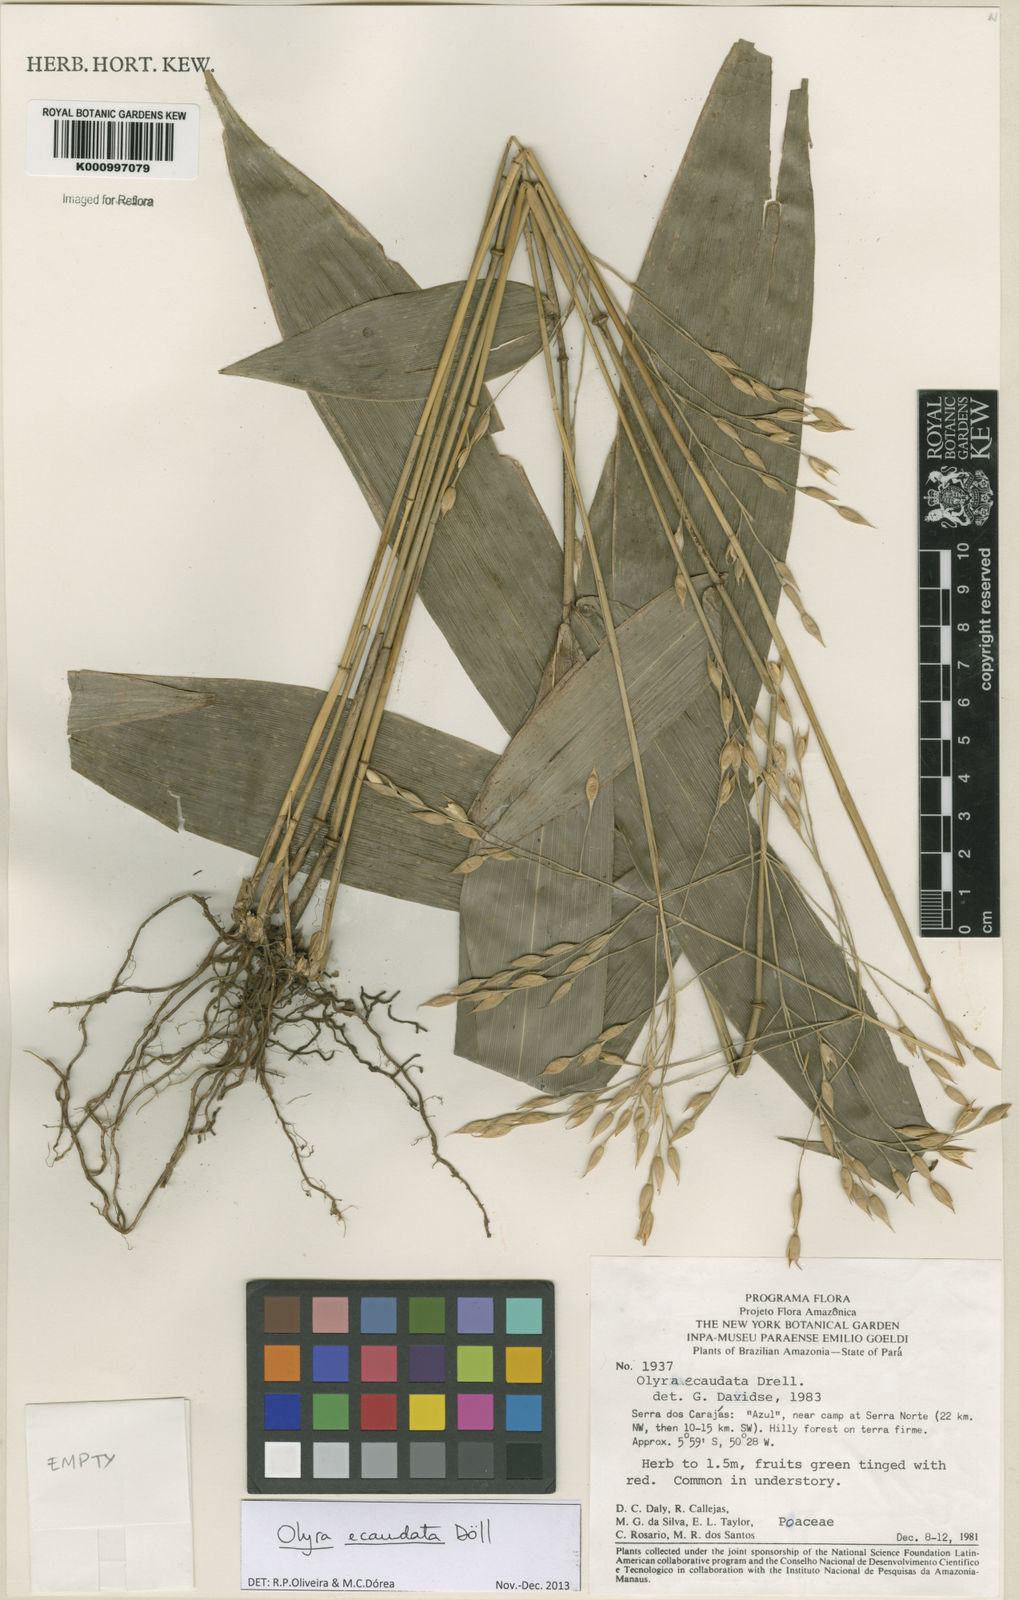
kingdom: Plantae
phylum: Tracheophyta
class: Liliopsida
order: Poales
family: Poaceae
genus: Olyra
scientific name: Olyra
